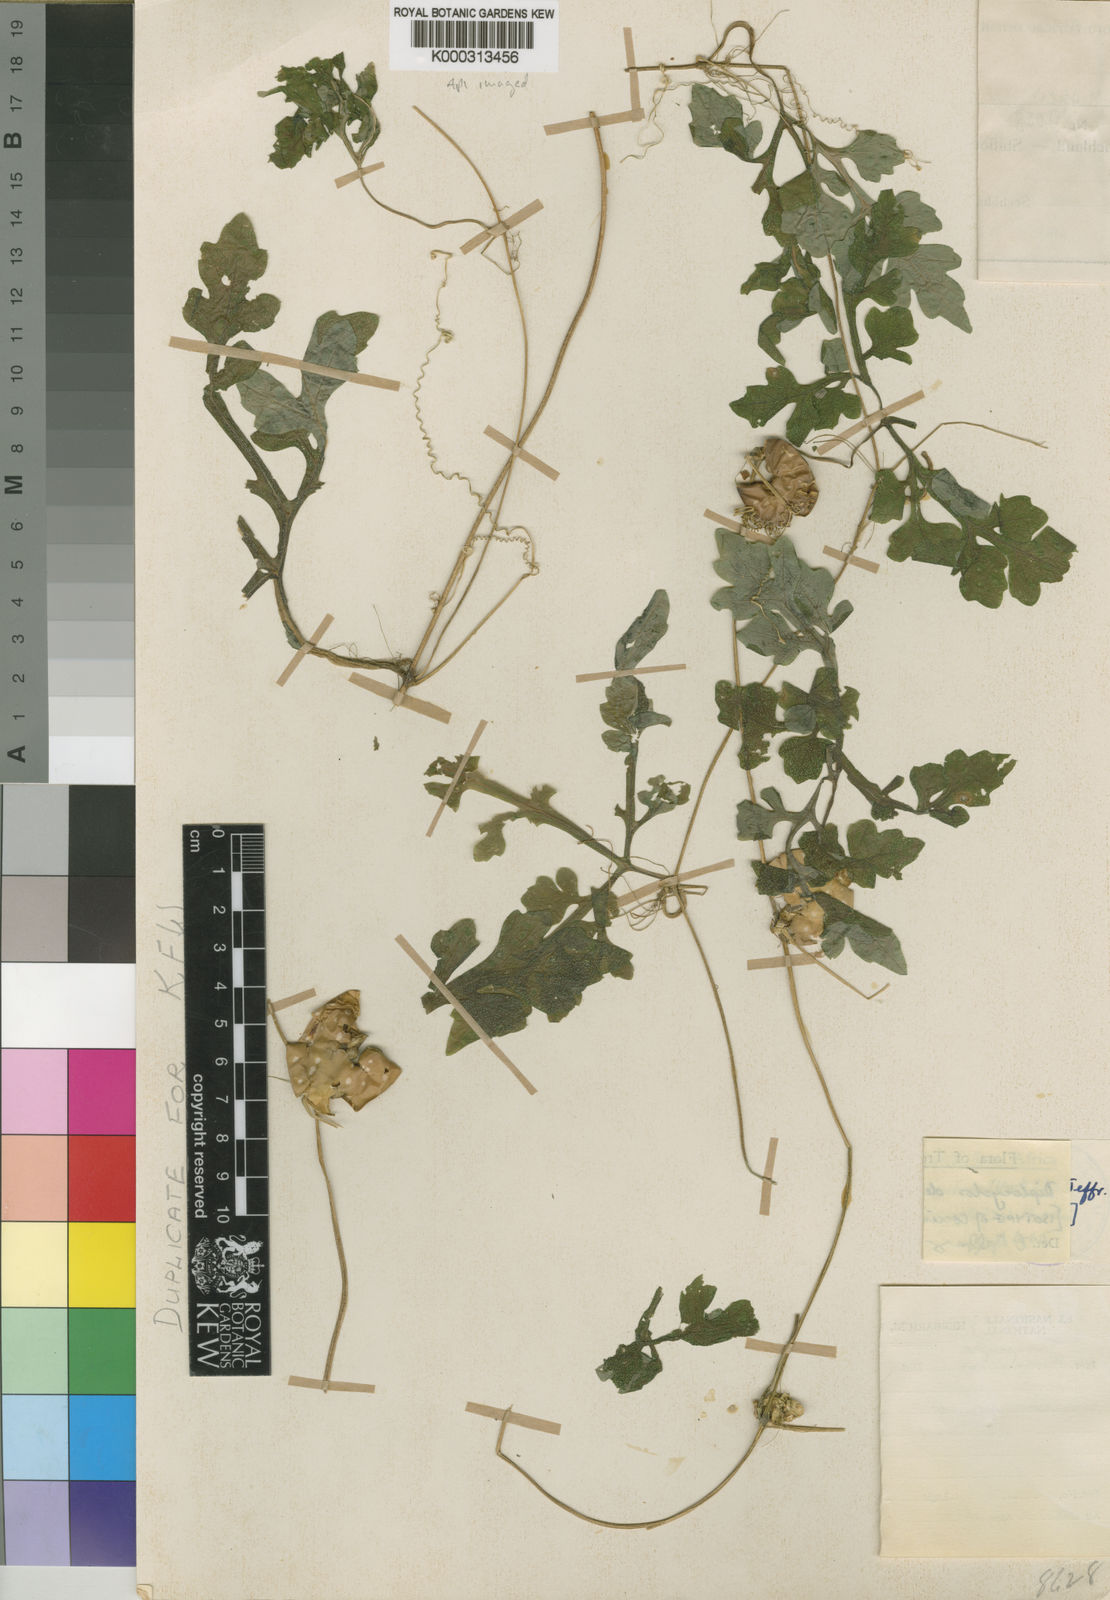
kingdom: Plantae
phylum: Tracheophyta
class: Magnoliopsida
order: Cucurbitales
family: Cucurbitaceae
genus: Diplocyclos
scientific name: Diplocyclos decipiens
